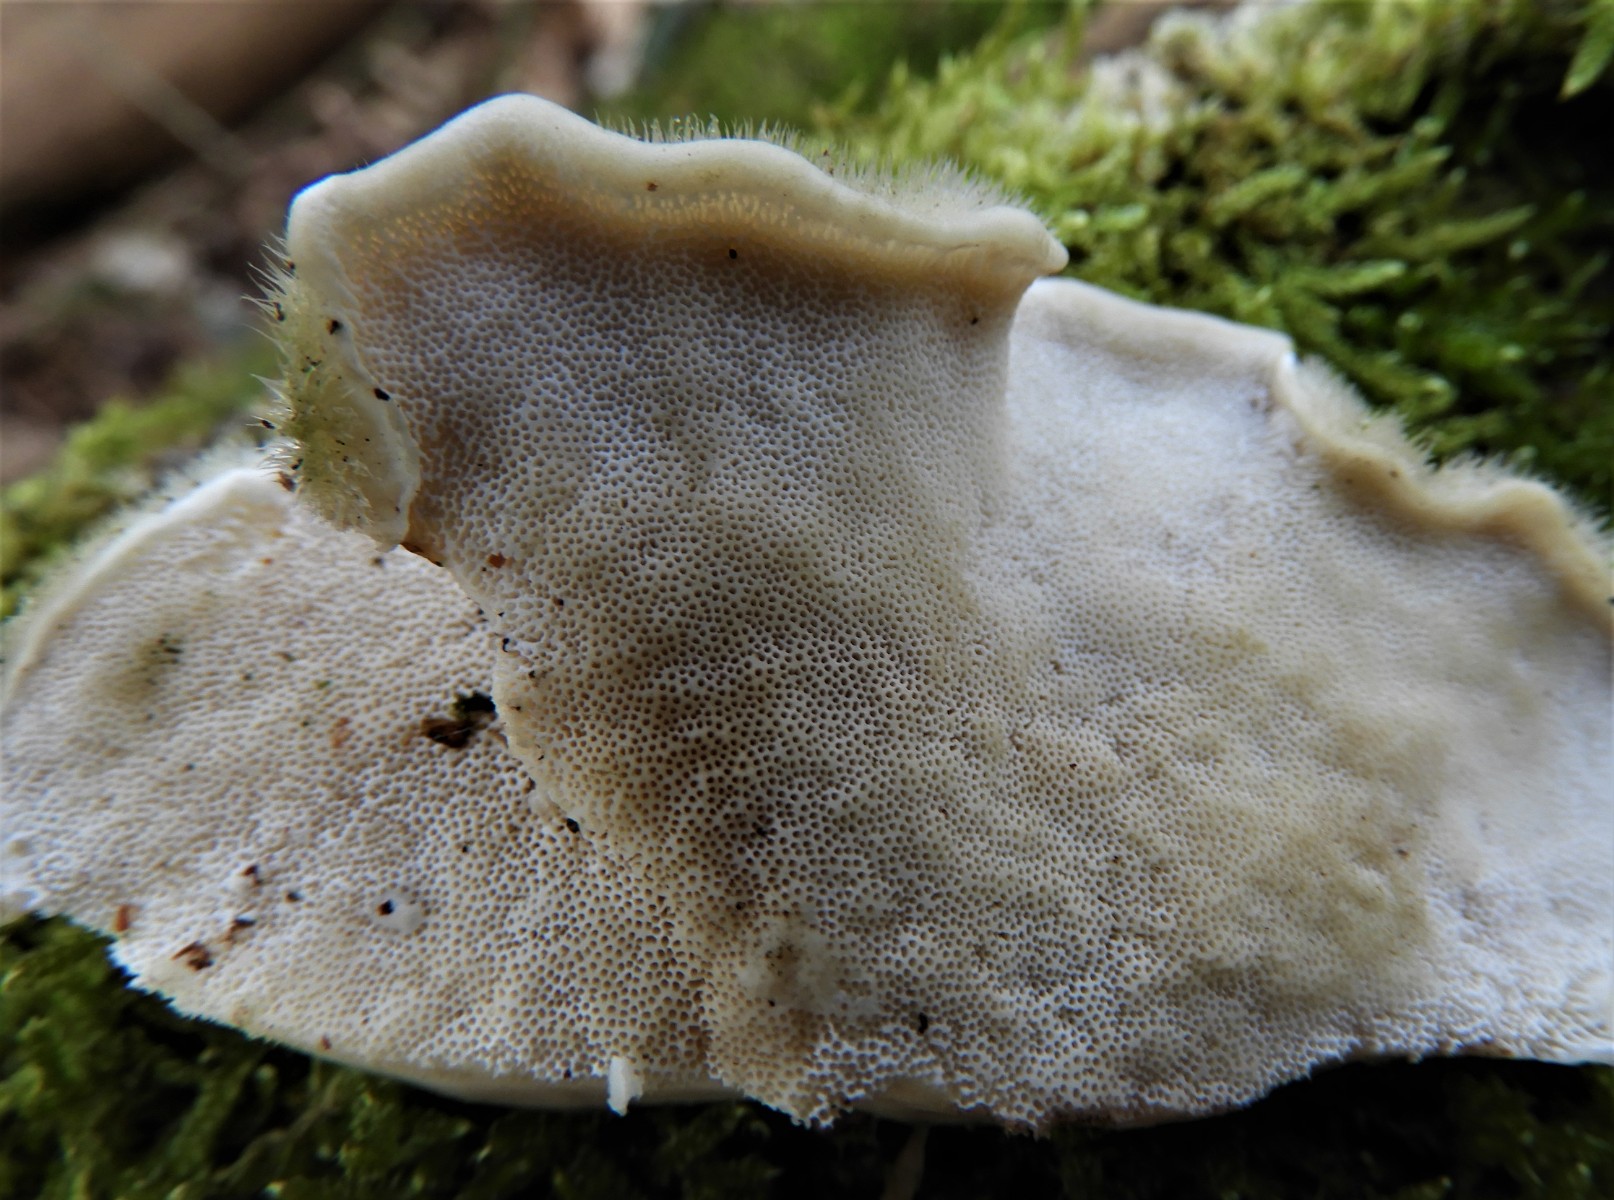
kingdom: Fungi
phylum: Basidiomycota
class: Agaricomycetes
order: Polyporales
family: Polyporaceae
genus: Trametes
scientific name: Trametes hirsuta
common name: håret læderporesvamp
